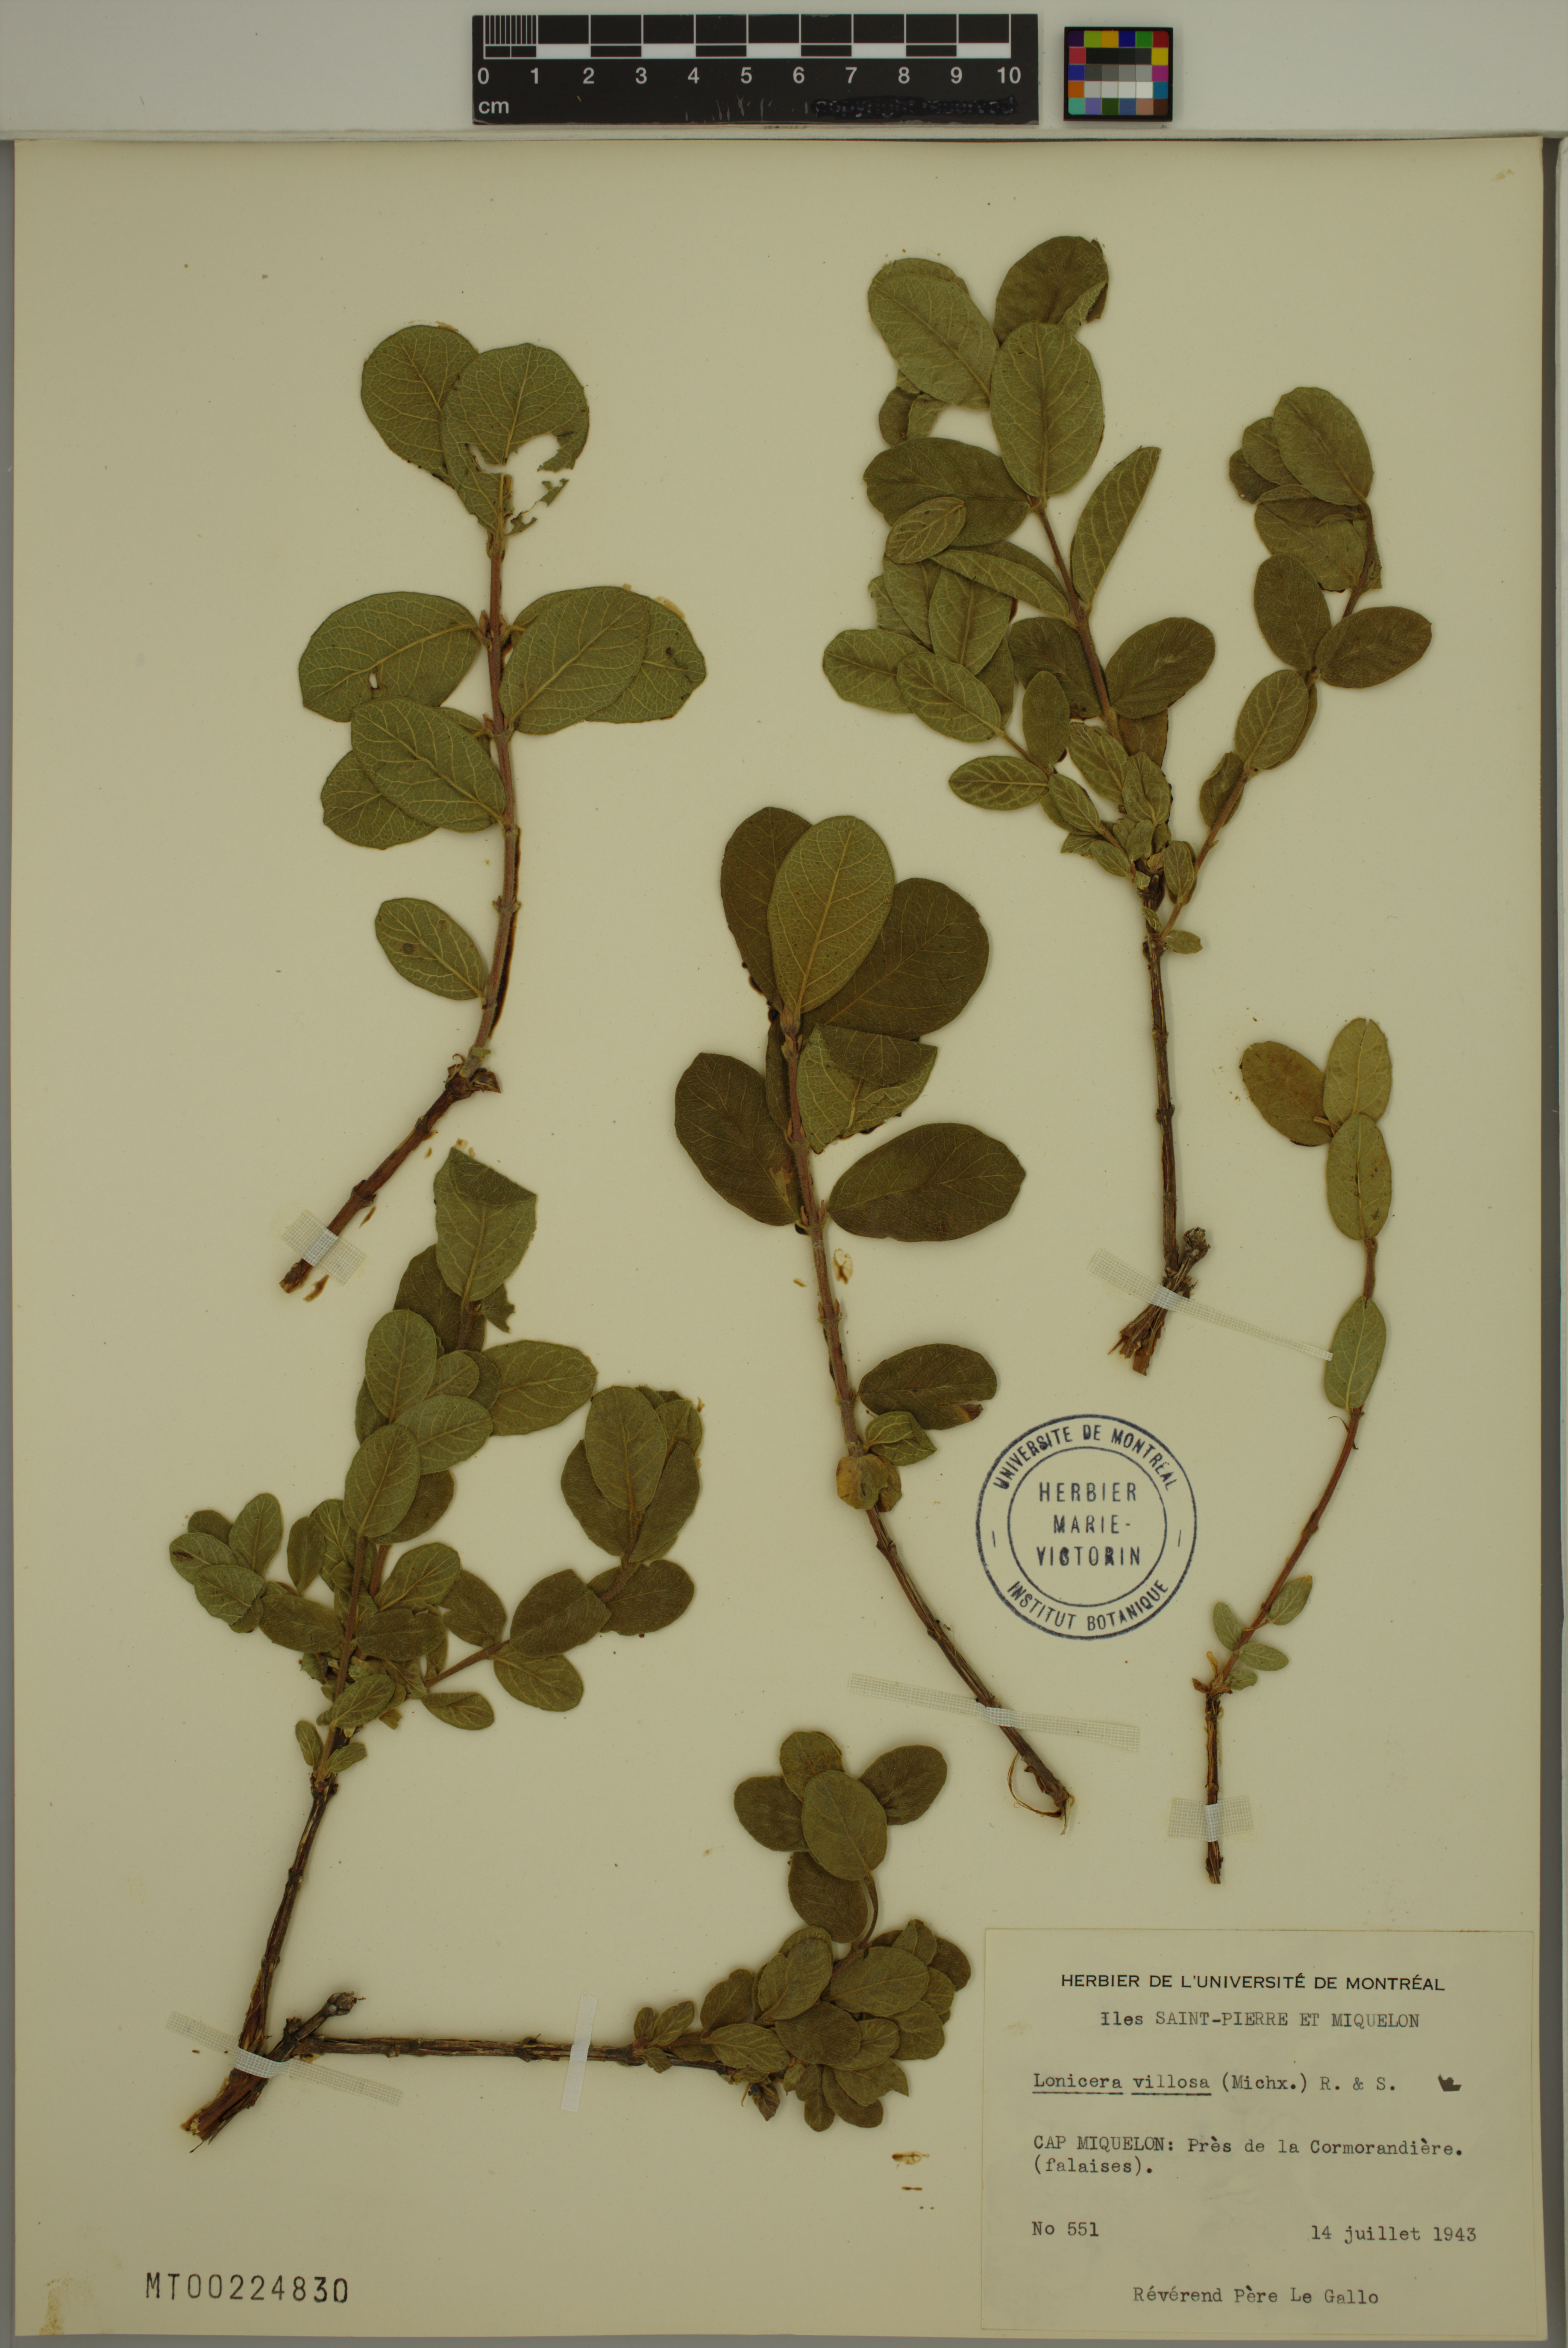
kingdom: Plantae
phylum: Tracheophyta
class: Magnoliopsida
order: Dipsacales
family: Caprifoliaceae
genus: Lonicera
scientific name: Lonicera villosa
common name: Mountain fly-honeysuckle
